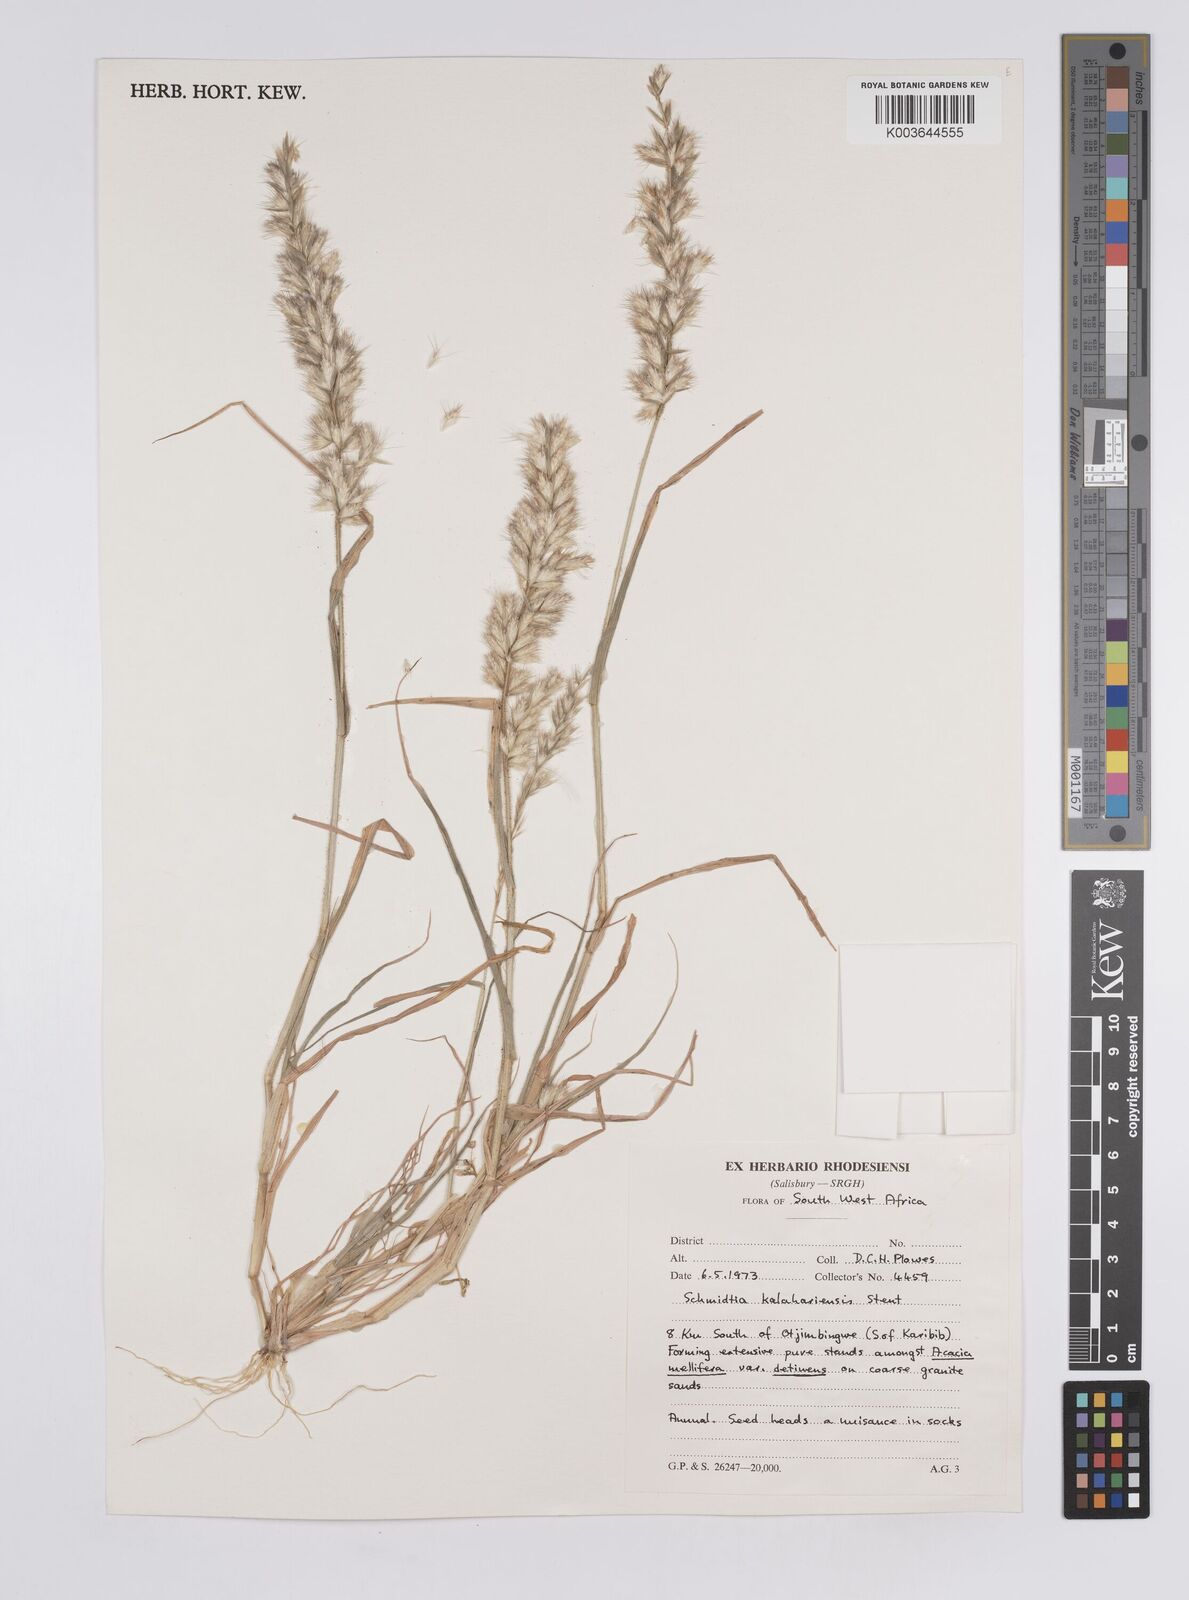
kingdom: Plantae
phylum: Tracheophyta
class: Liliopsida
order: Poales
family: Poaceae
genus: Schmidtia
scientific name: Schmidtia kalahariensis
